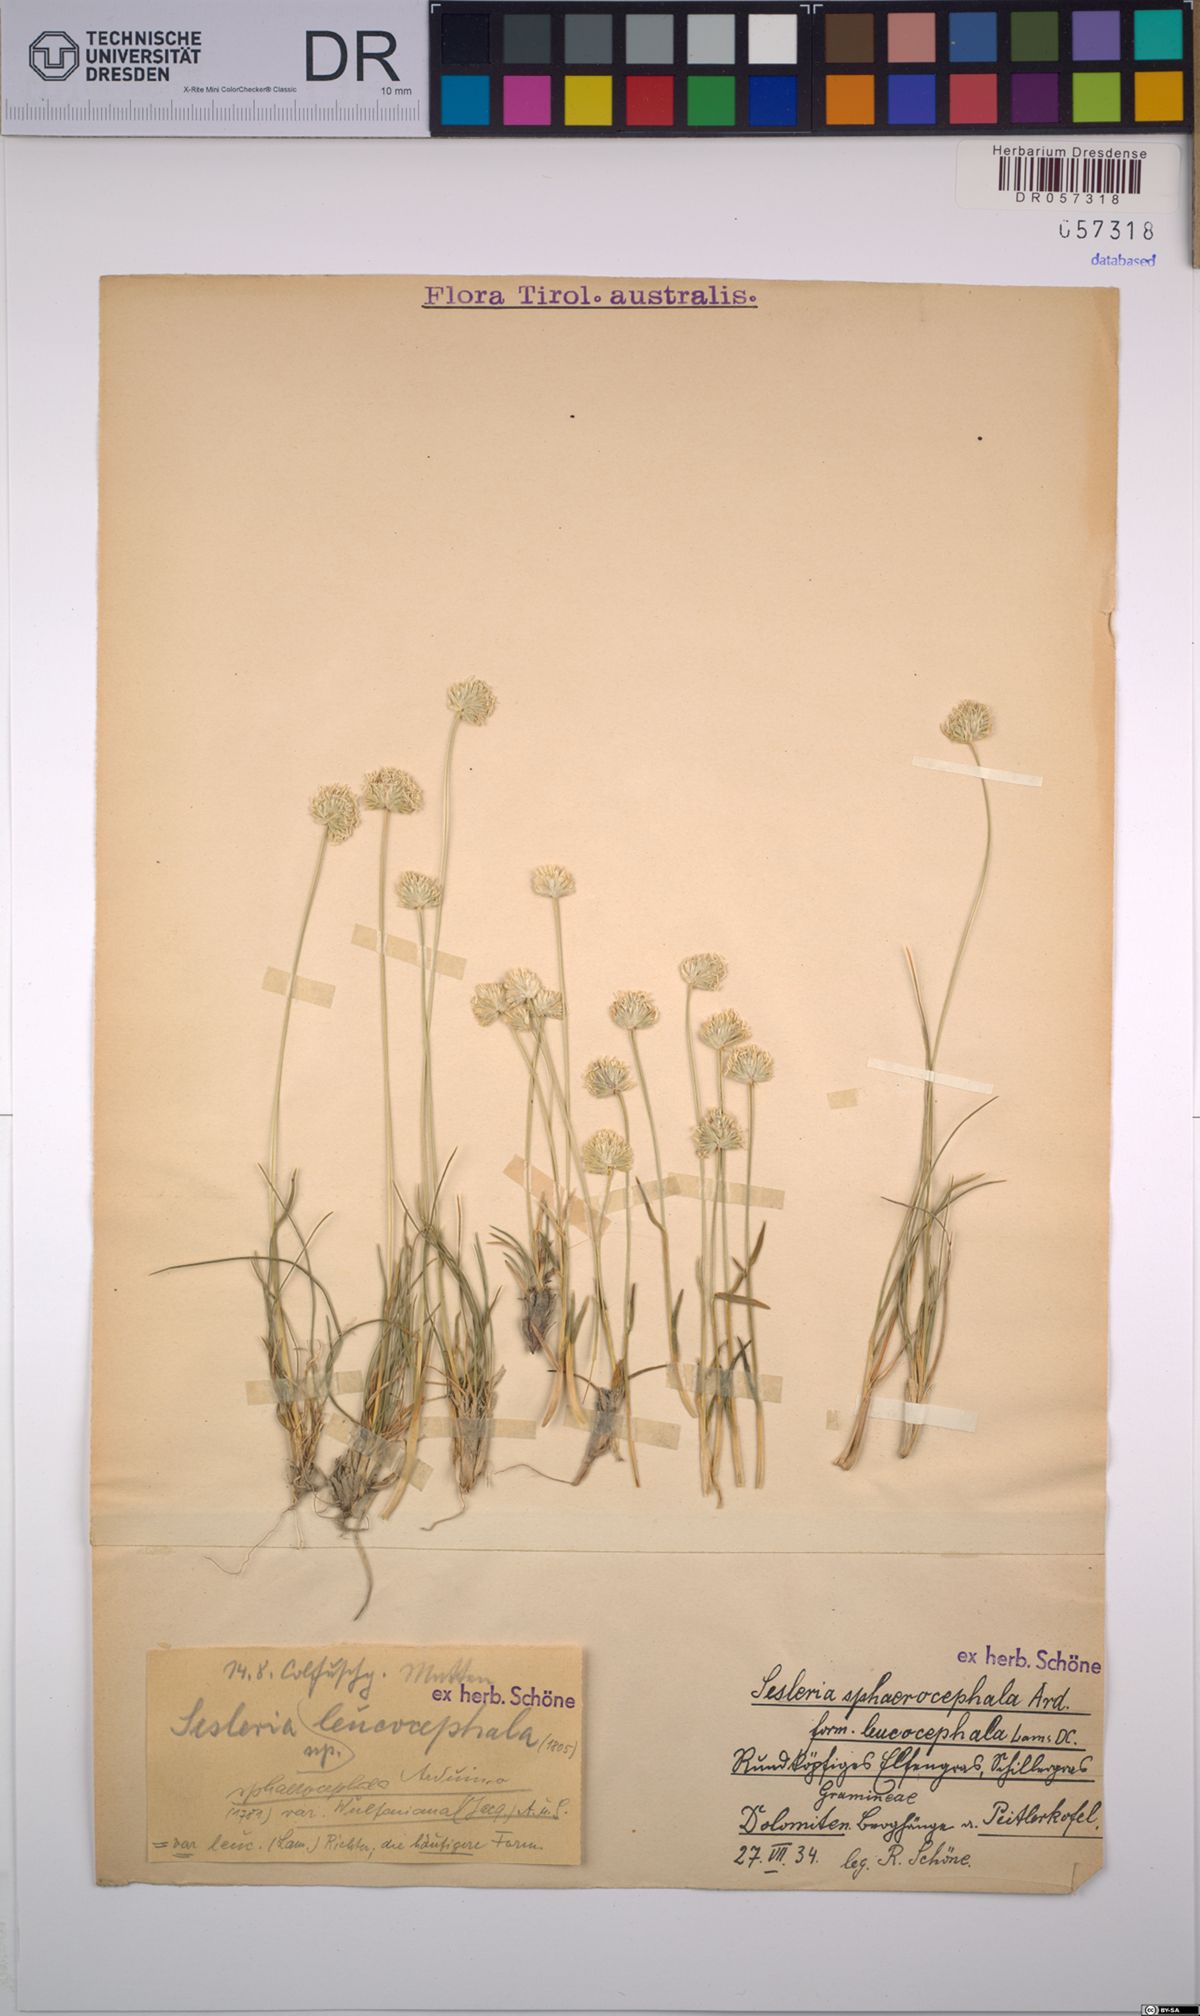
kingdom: Plantae
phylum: Tracheophyta
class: Liliopsida
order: Poales
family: Poaceae
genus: Sesleriella
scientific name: Sesleriella sphaerocephala
